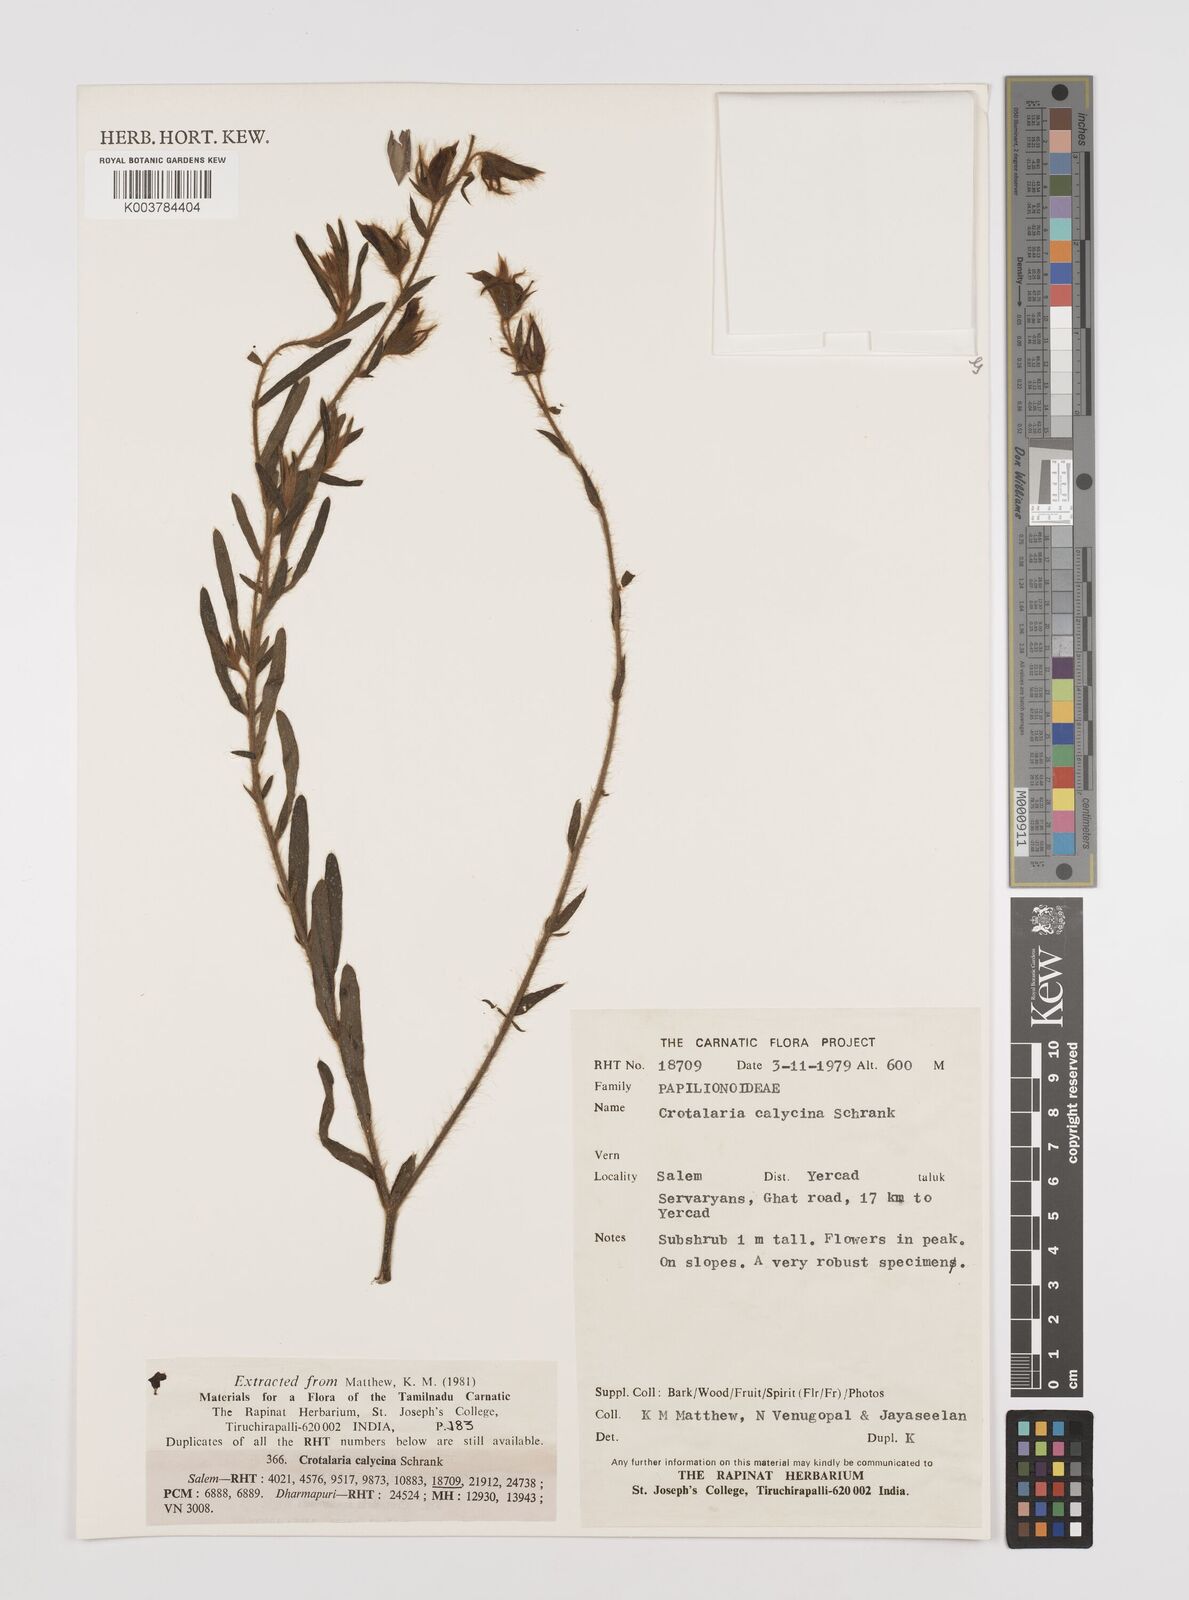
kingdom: Plantae
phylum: Tracheophyta
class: Magnoliopsida
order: Fabales
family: Fabaceae
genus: Crotalaria
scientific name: Crotalaria calycina
